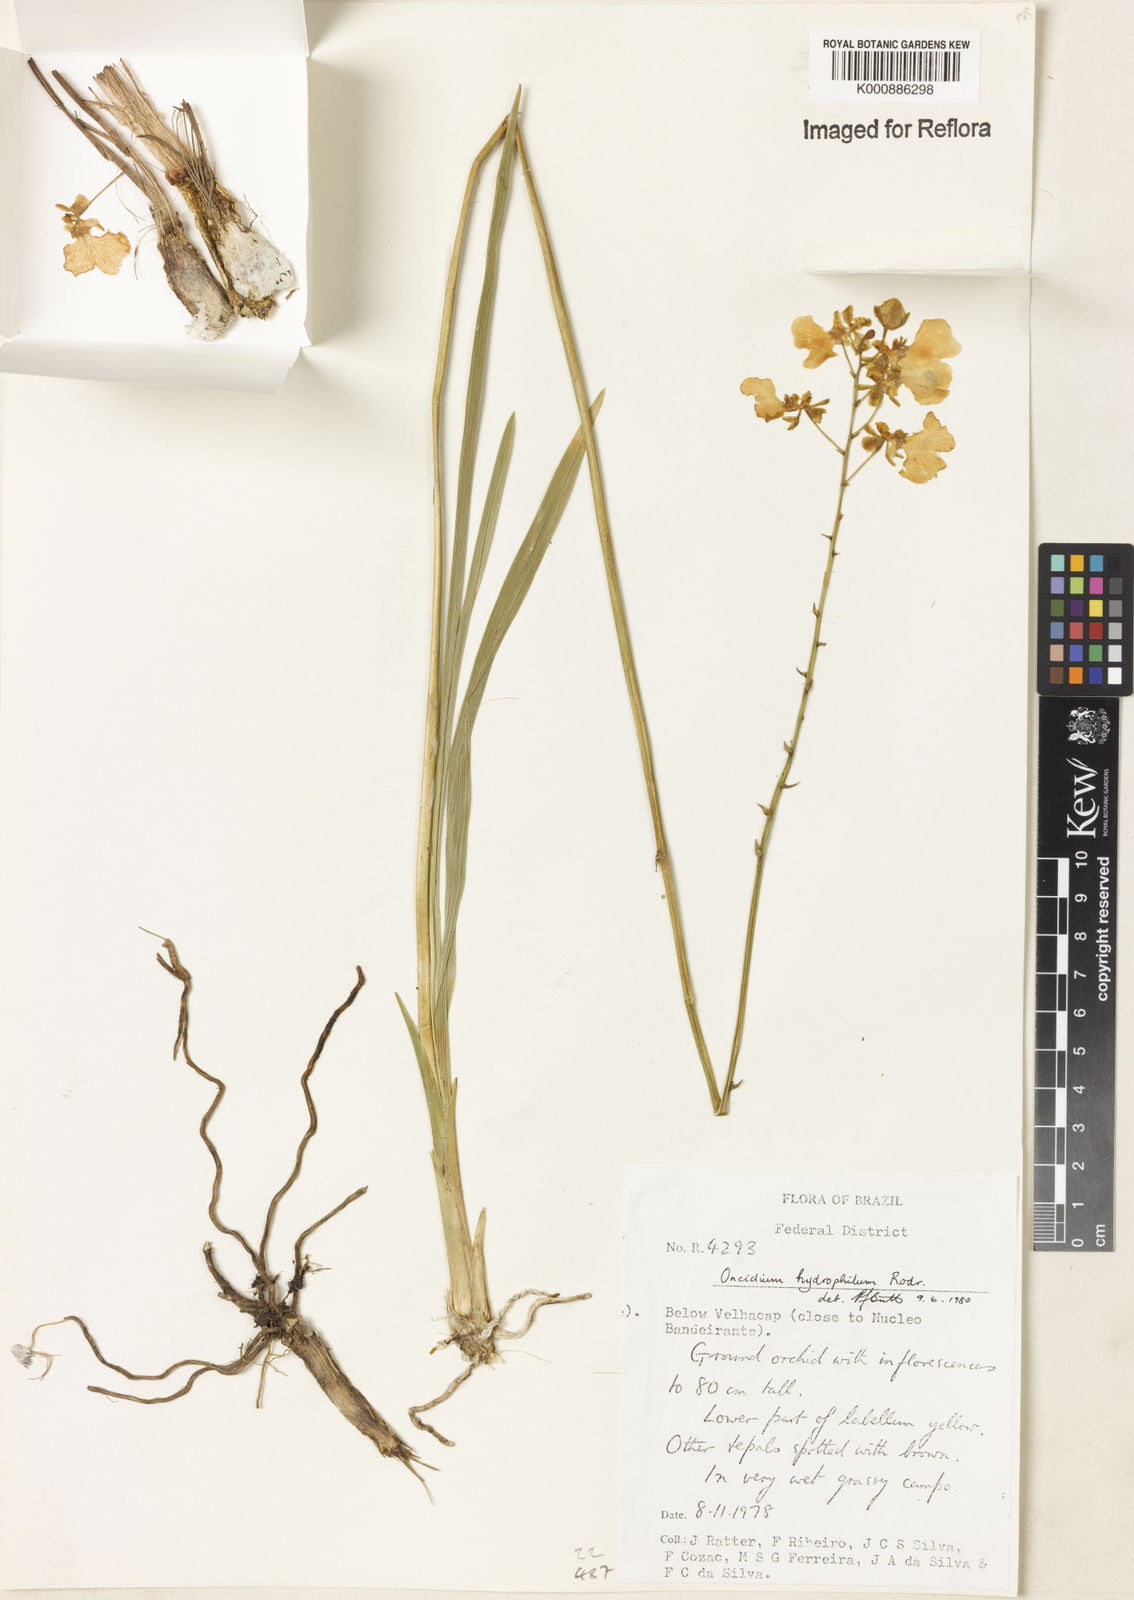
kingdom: Plantae
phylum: Tracheophyta
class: Liliopsida
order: Asparagales
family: Orchidaceae
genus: Gomesa
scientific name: Gomesa hydrophila
